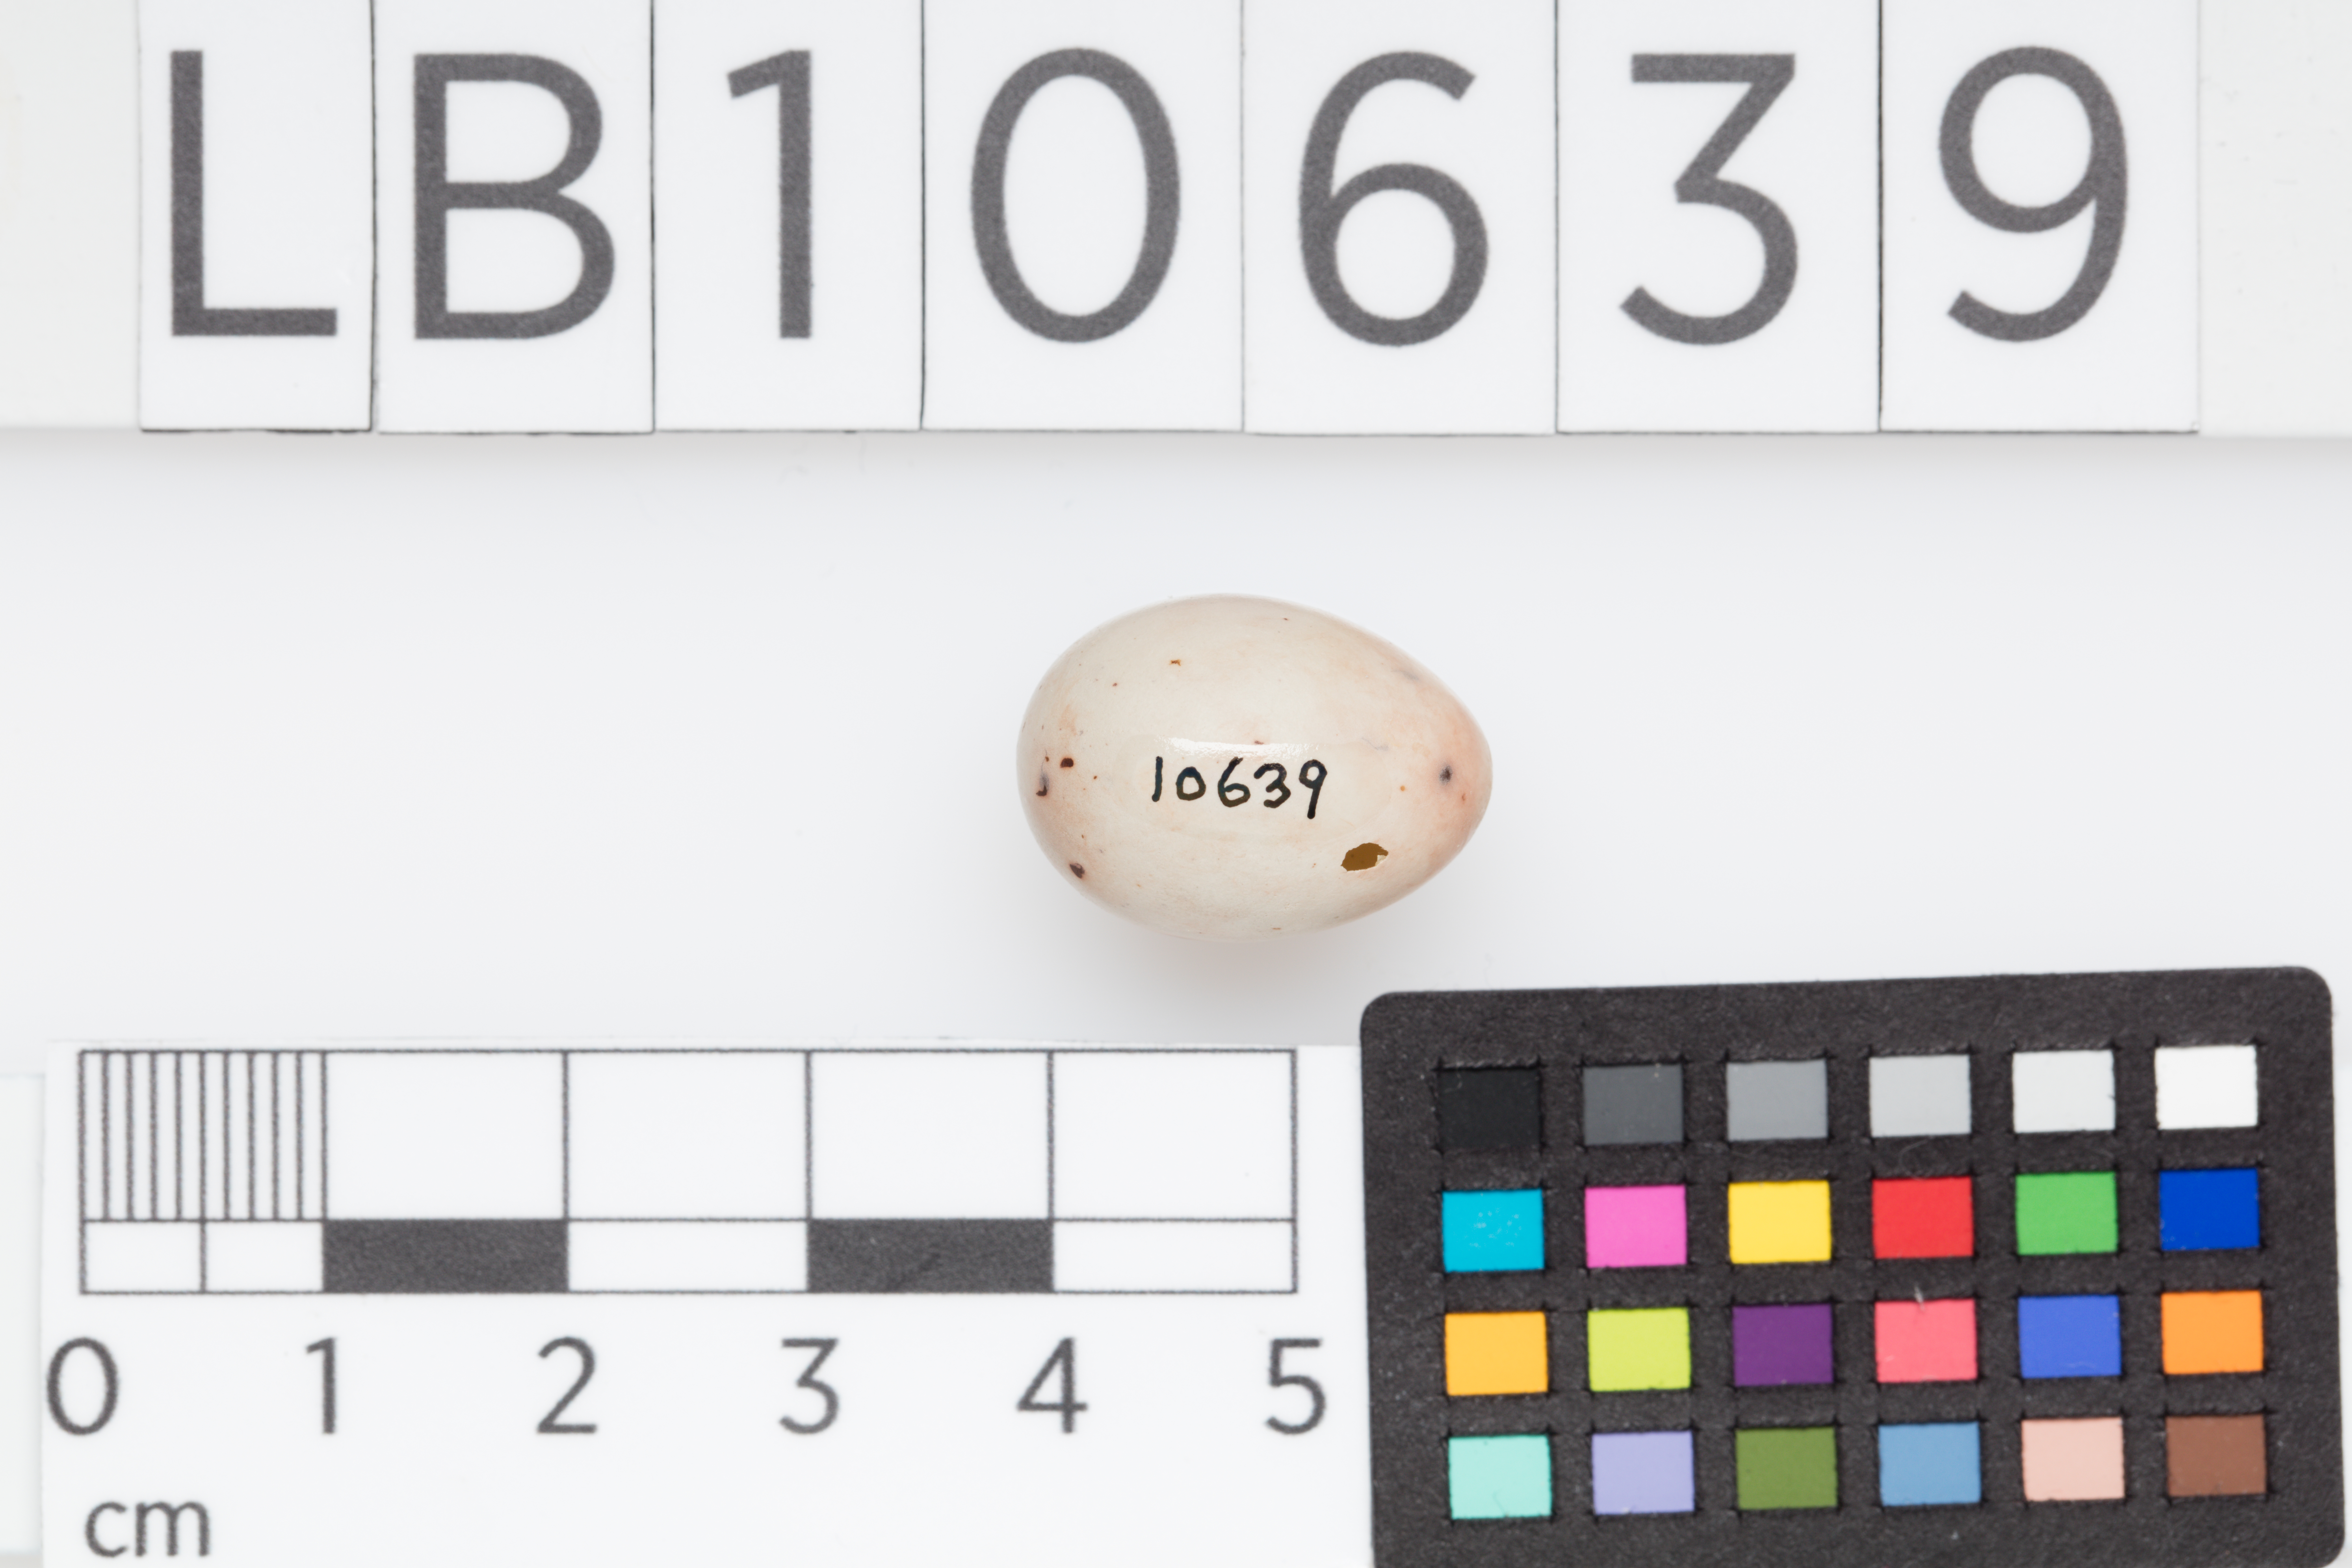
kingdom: Animalia
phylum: Chordata
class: Aves
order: Passeriformes
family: Fringillidae
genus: Fringilla
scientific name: Fringilla coelebs
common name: Common chaffinch
